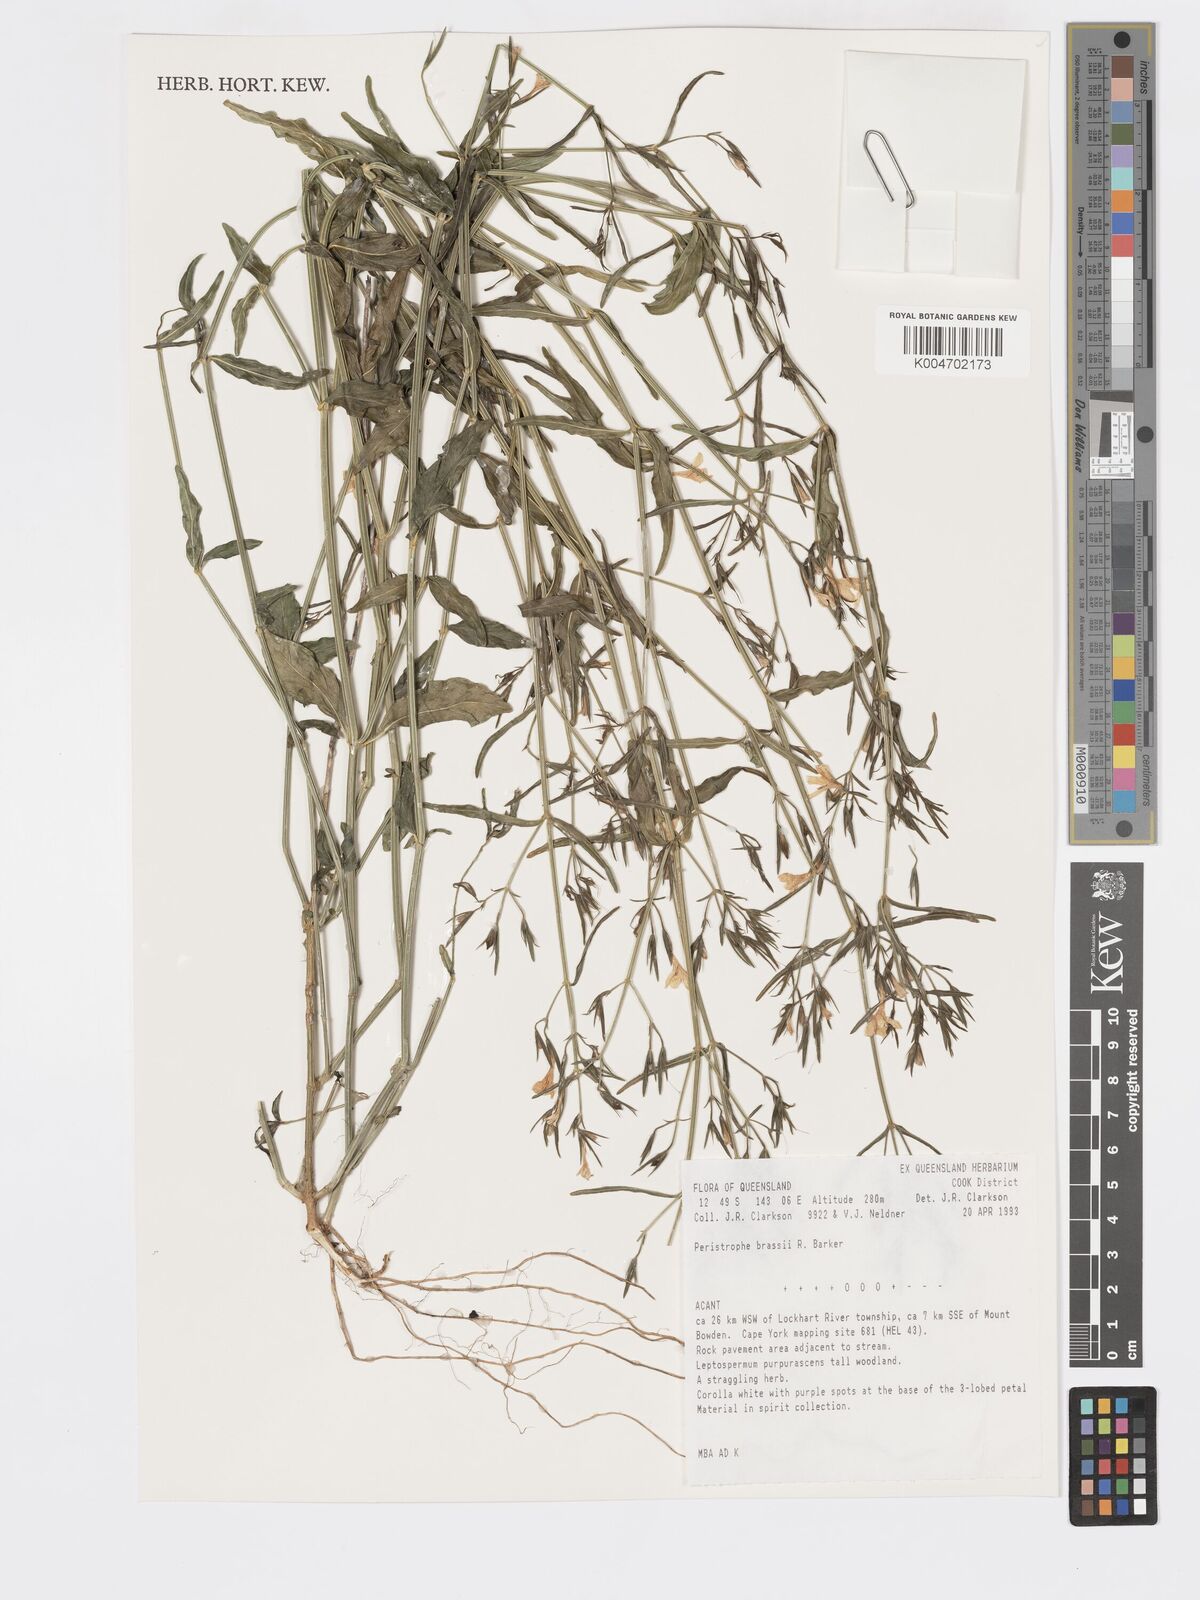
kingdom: Plantae
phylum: Tracheophyta
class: Magnoliopsida
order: Lamiales
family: Acanthaceae
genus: Dicliptera
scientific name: Dicliptera
